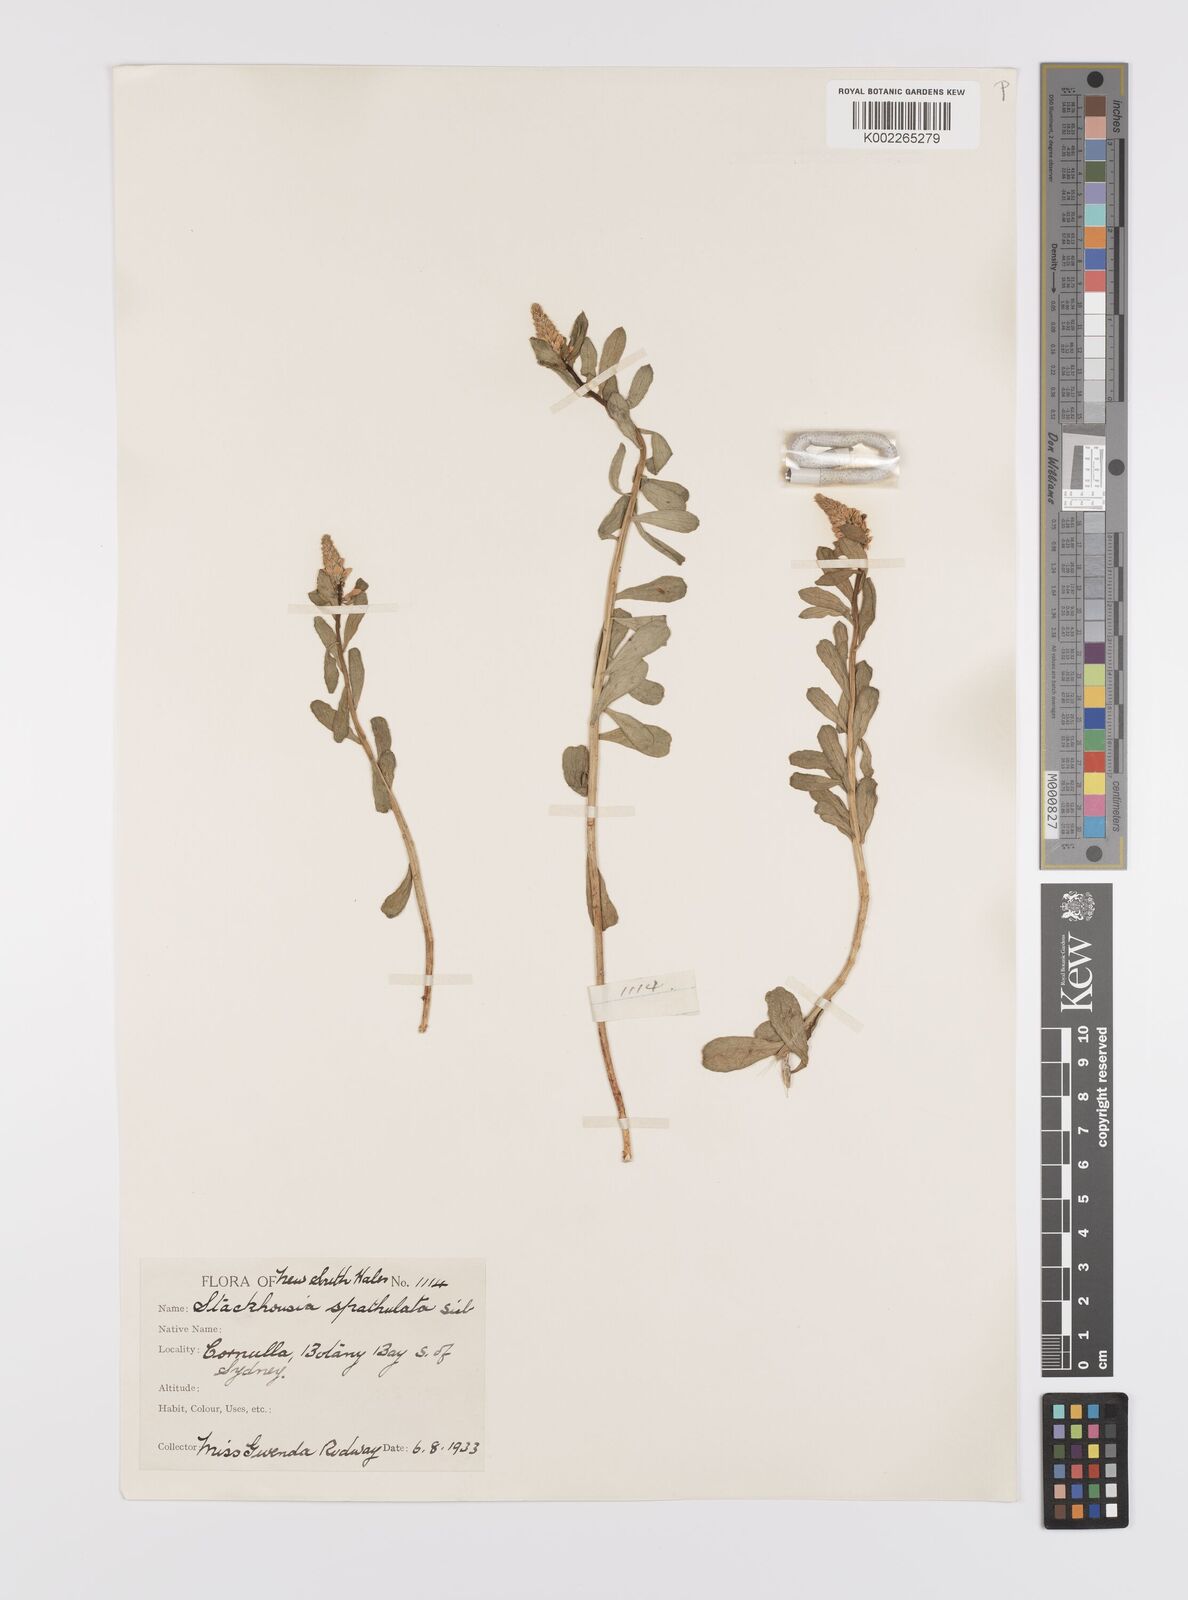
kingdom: Plantae
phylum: Tracheophyta
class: Magnoliopsida
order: Celastrales
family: Celastraceae
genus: Stackhousia
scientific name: Stackhousia spathulata
